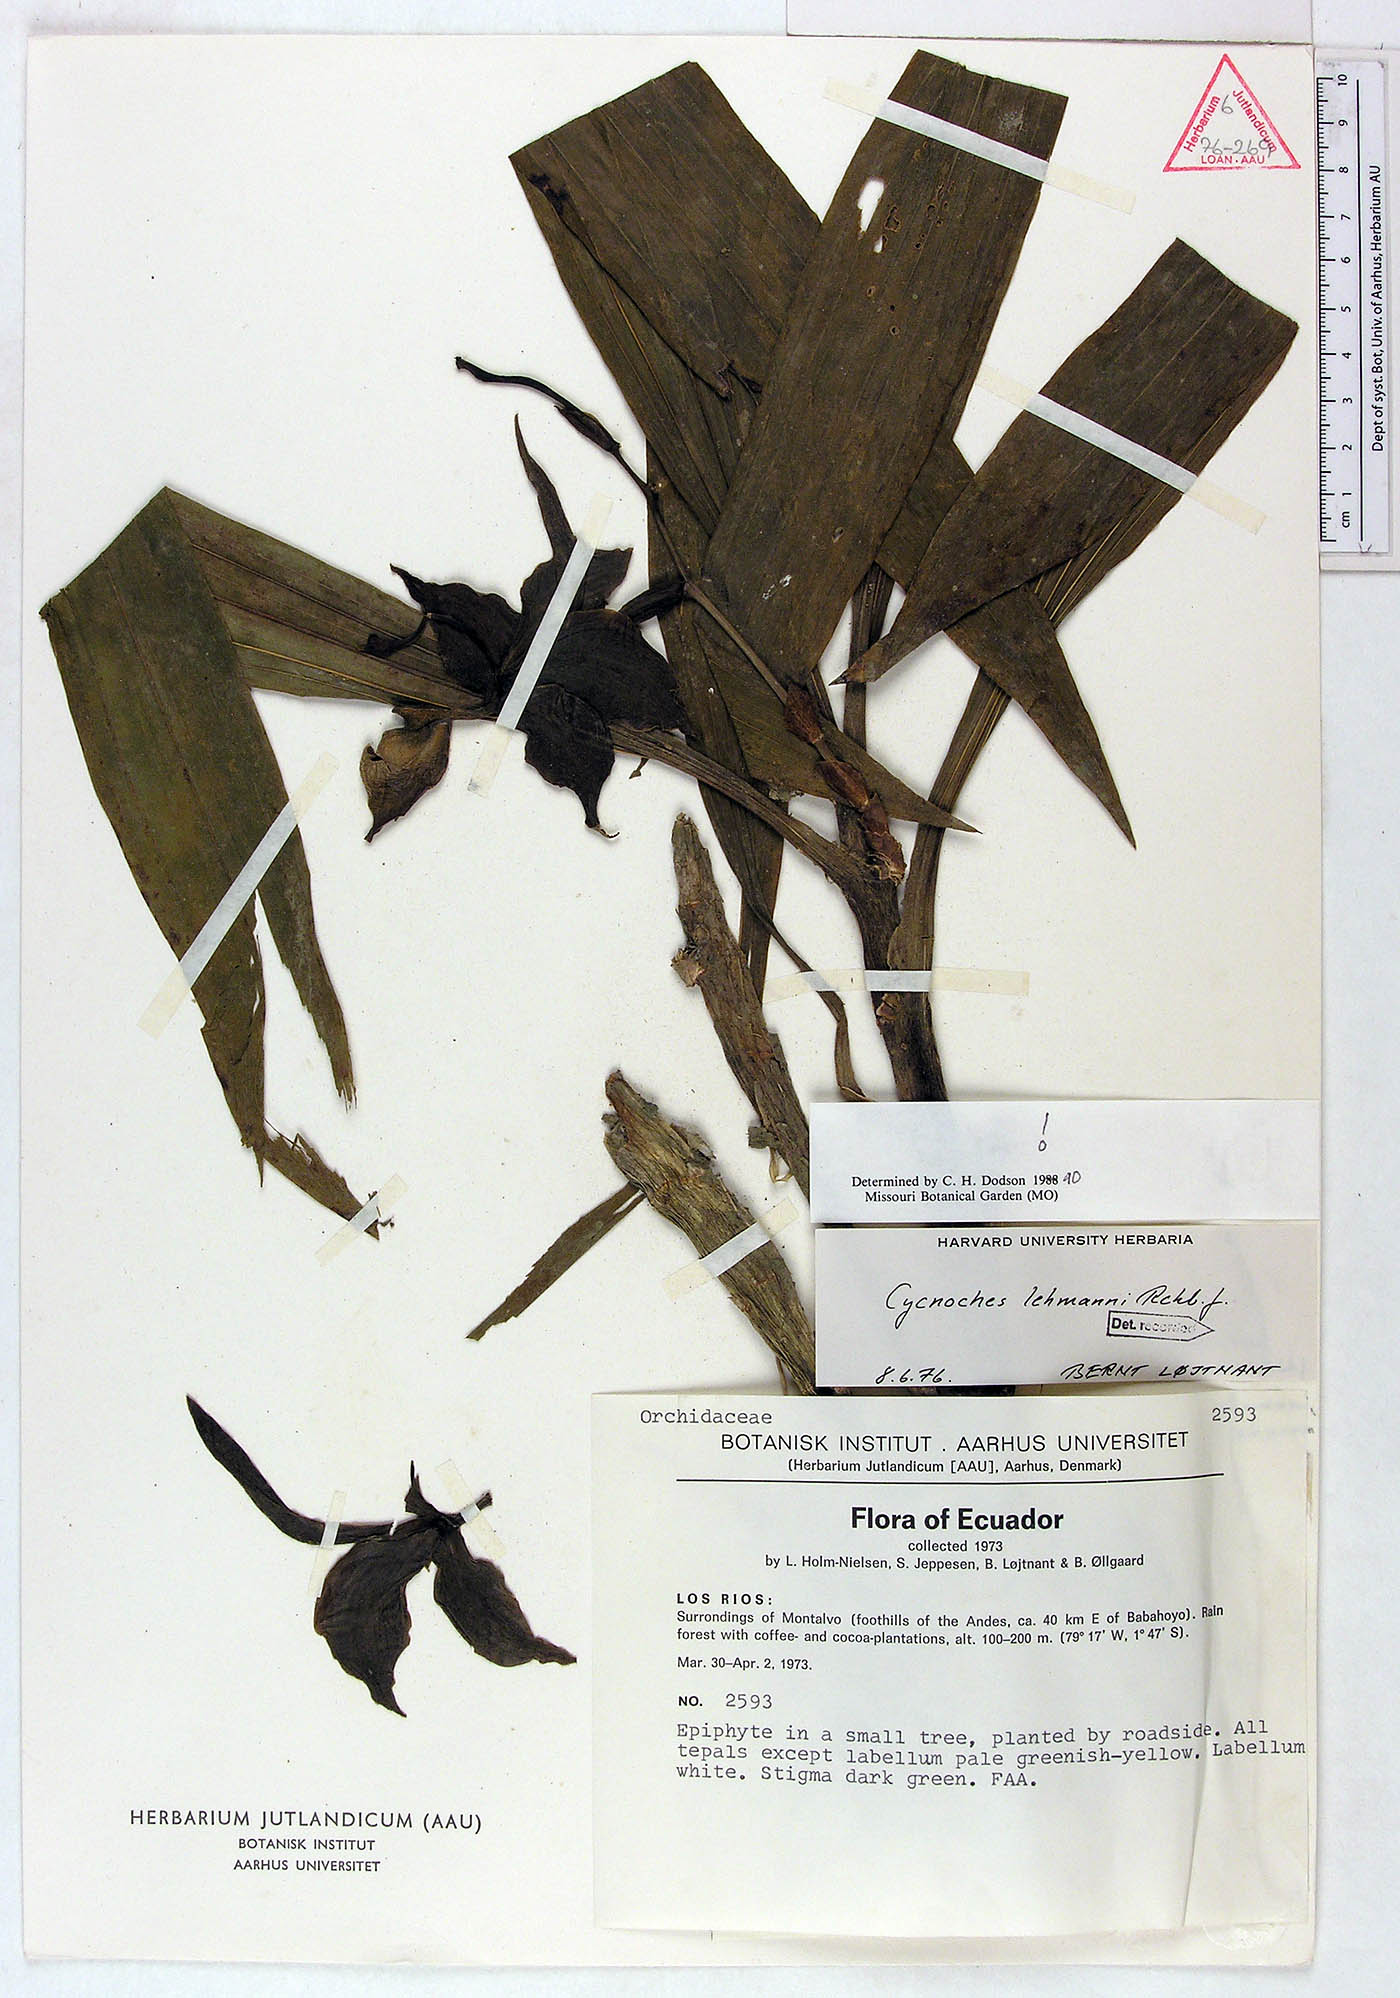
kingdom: Plantae
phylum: Tracheophyta
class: Liliopsida
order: Asparagales
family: Orchidaceae
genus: Cycnoches
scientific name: Cycnoches lehmannii
